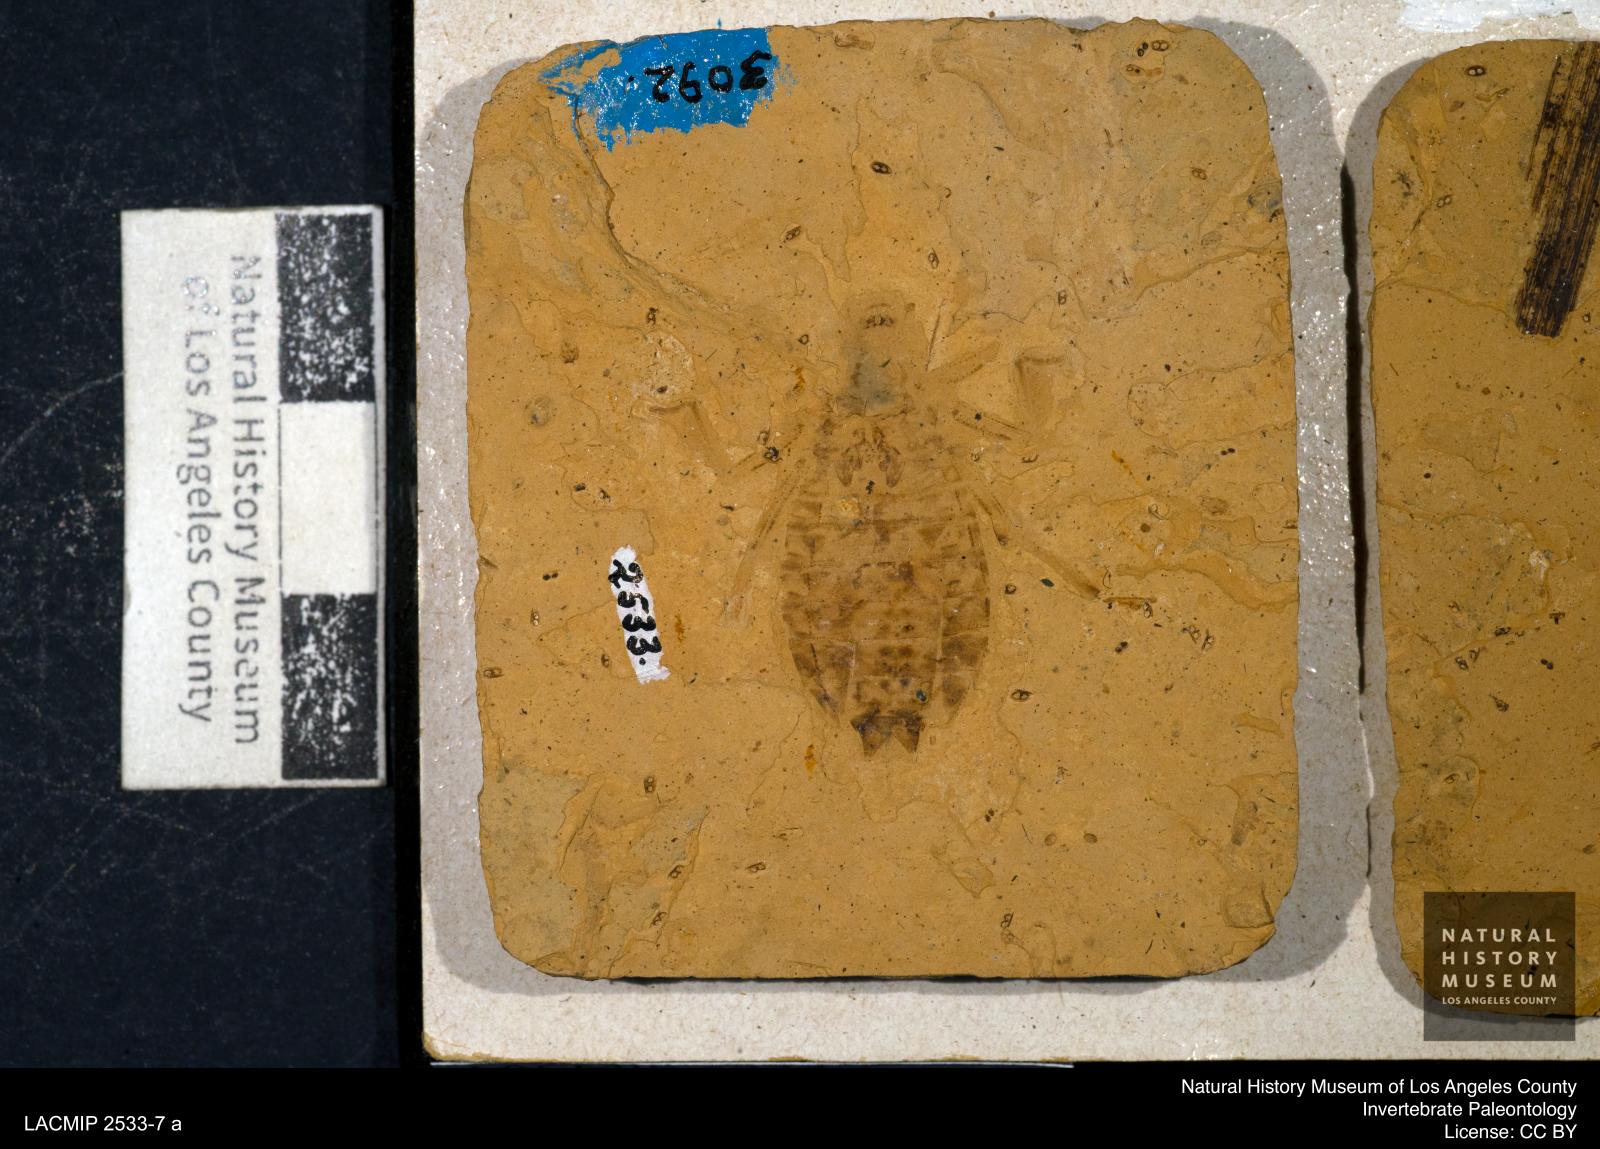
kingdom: Animalia
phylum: Arthropoda
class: Insecta
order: Odonata
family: Libellulidae
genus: Libellula
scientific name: Libellula ceres
